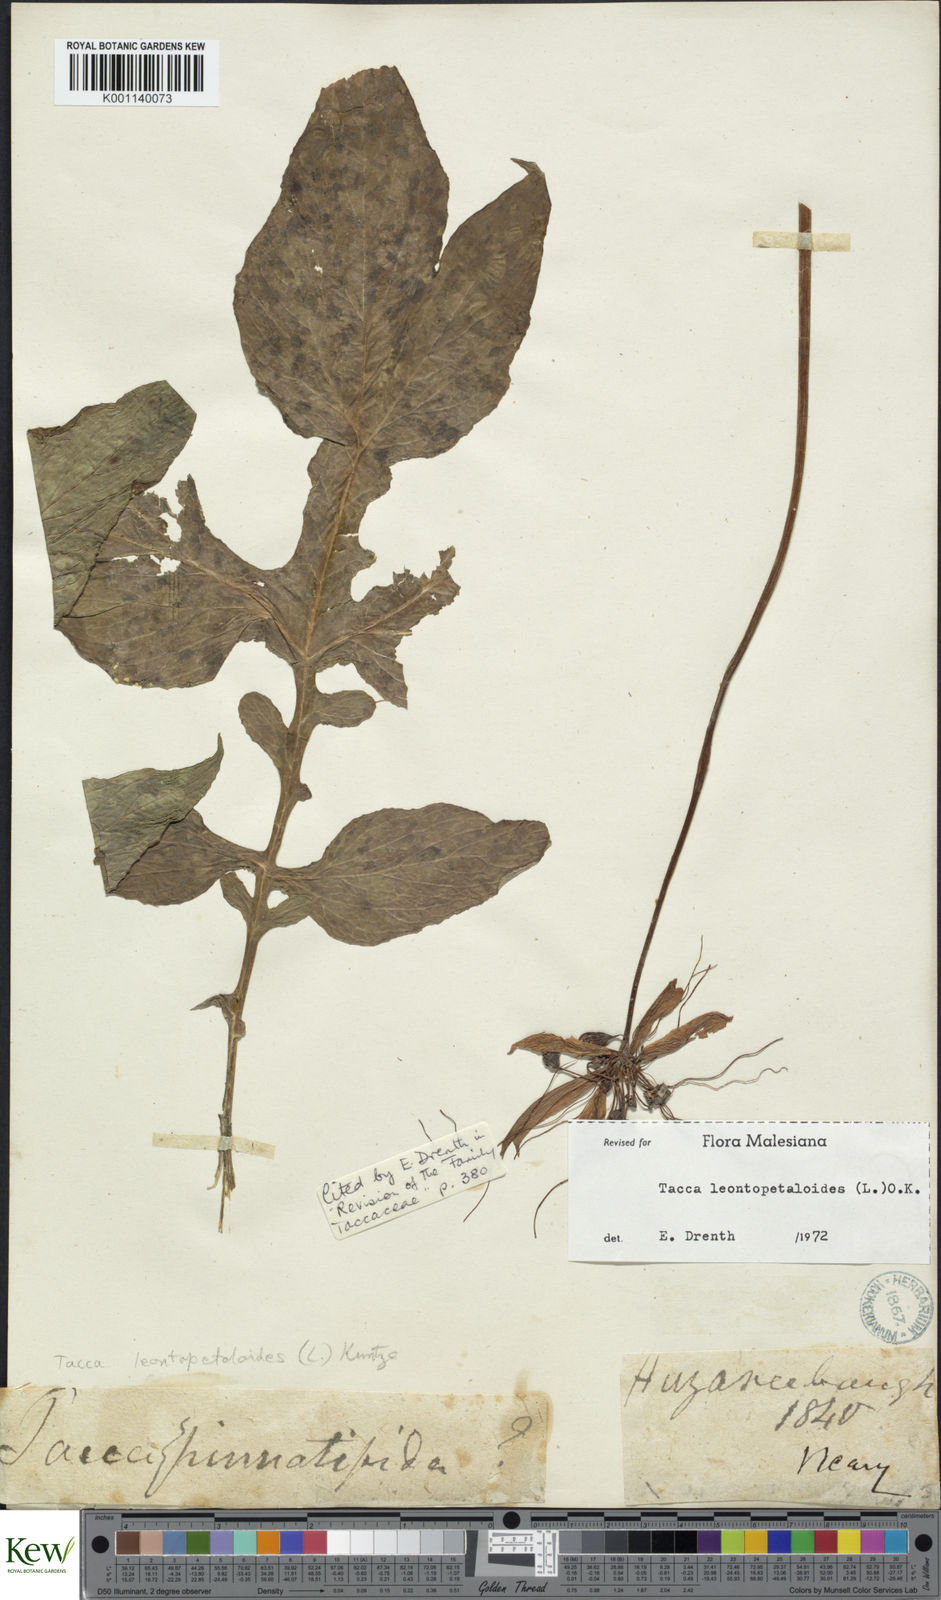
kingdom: Plantae
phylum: Tracheophyta
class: Liliopsida
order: Dioscoreales
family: Dioscoreaceae
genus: Tacca
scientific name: Tacca leontopetaloides
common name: Arrowroot
